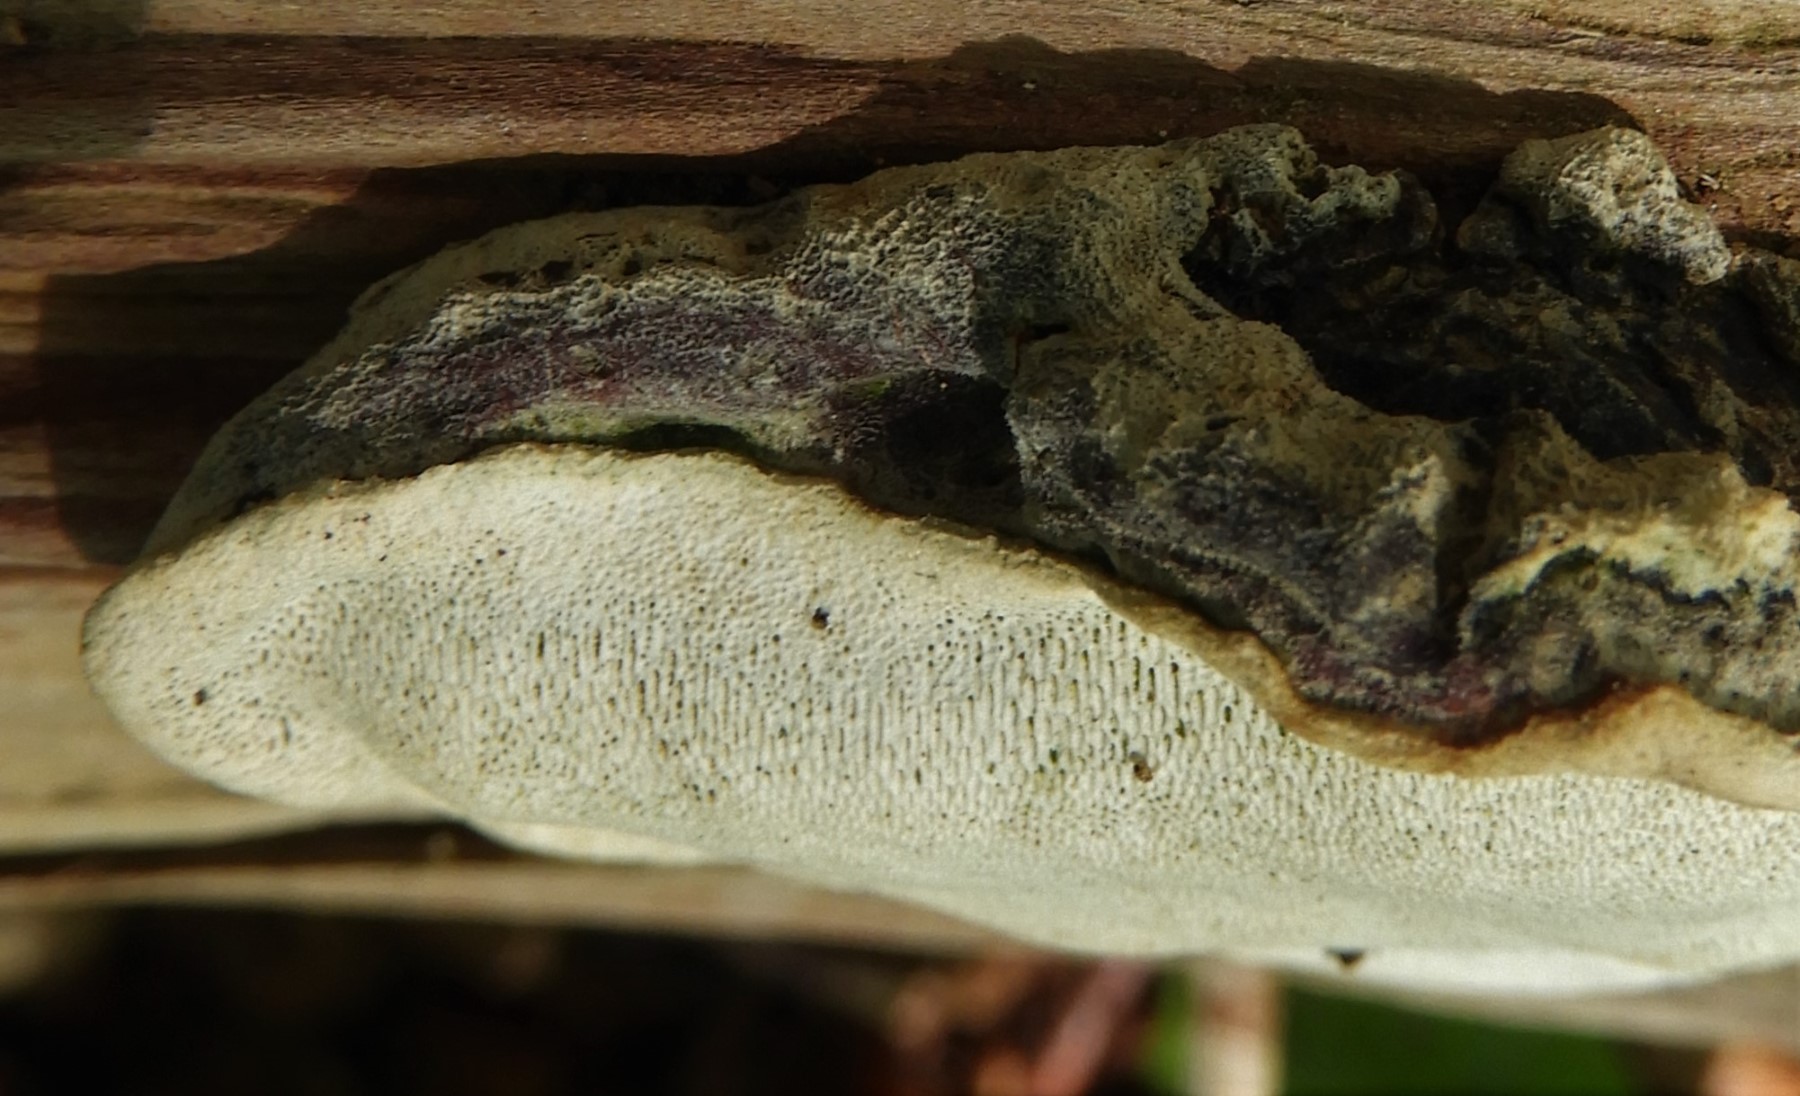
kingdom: Fungi
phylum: Basidiomycota
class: Agaricomycetes
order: Russulales
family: Bondarzewiaceae
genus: Heterobasidion
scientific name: Heterobasidion annosum
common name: almindelig rodfordærver
